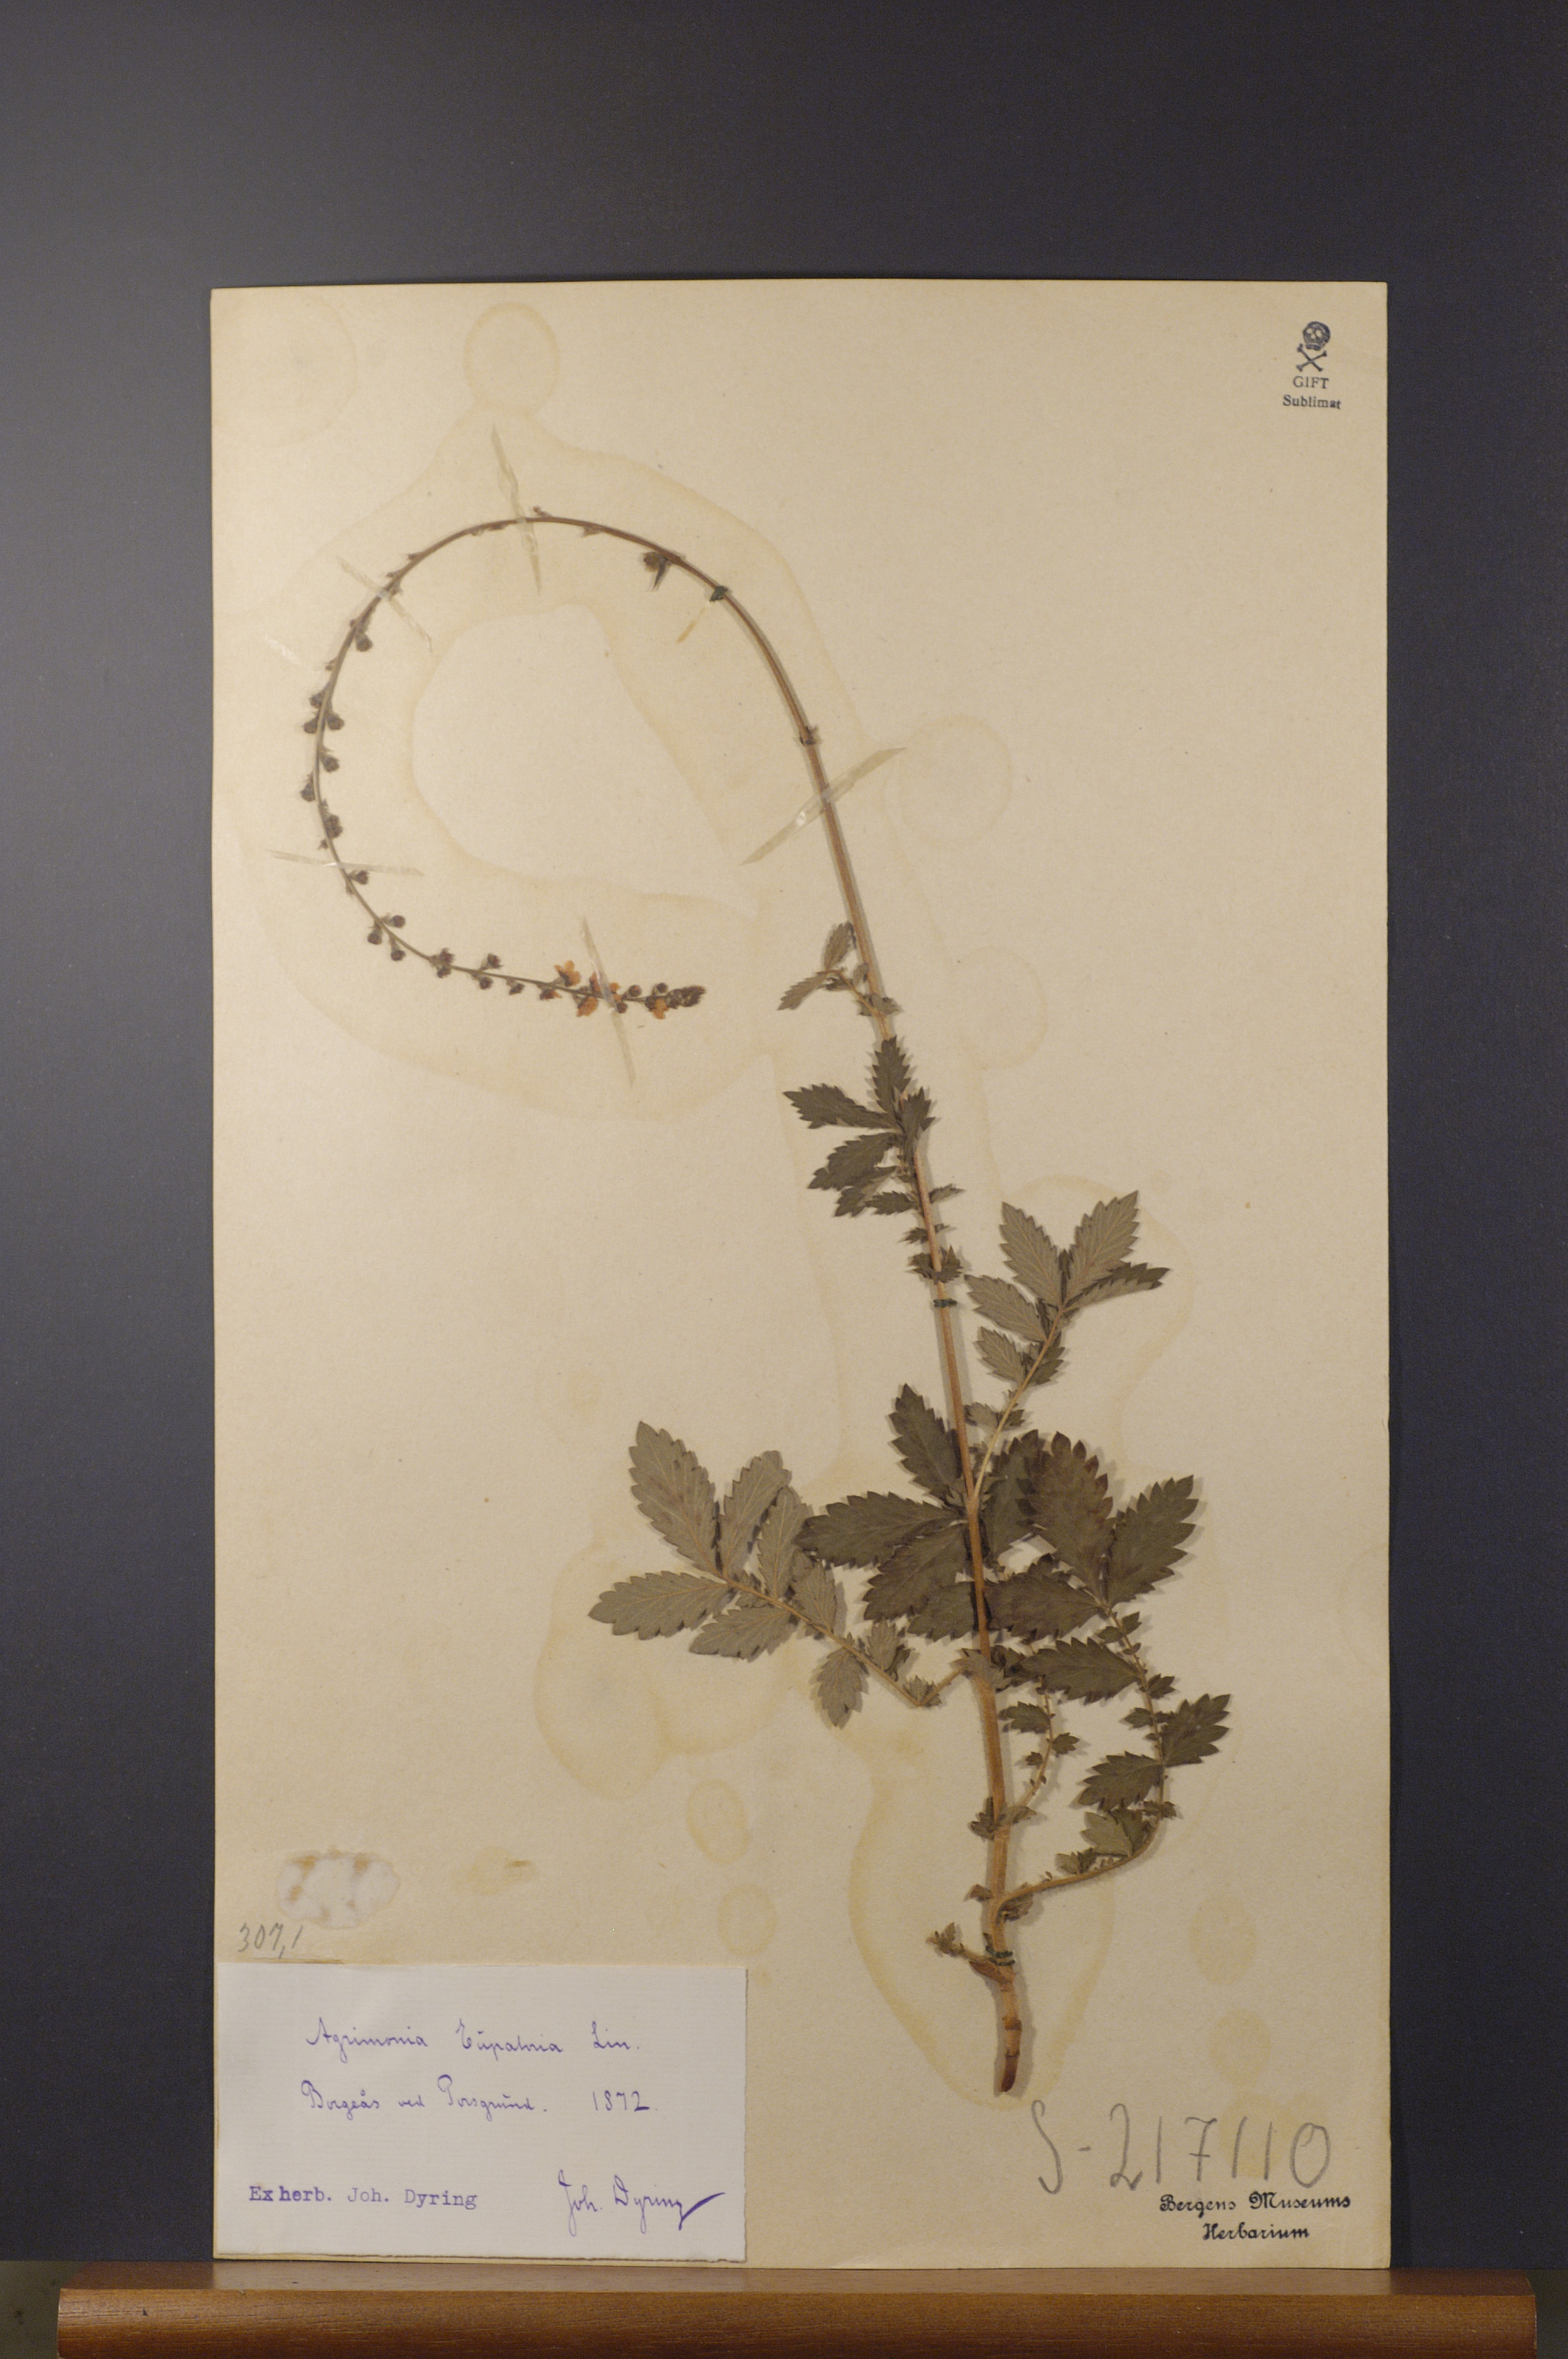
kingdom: Plantae
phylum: Tracheophyta
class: Magnoliopsida
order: Rosales
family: Rosaceae
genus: Agrimonia
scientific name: Agrimonia eupatoria
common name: Agrimony
